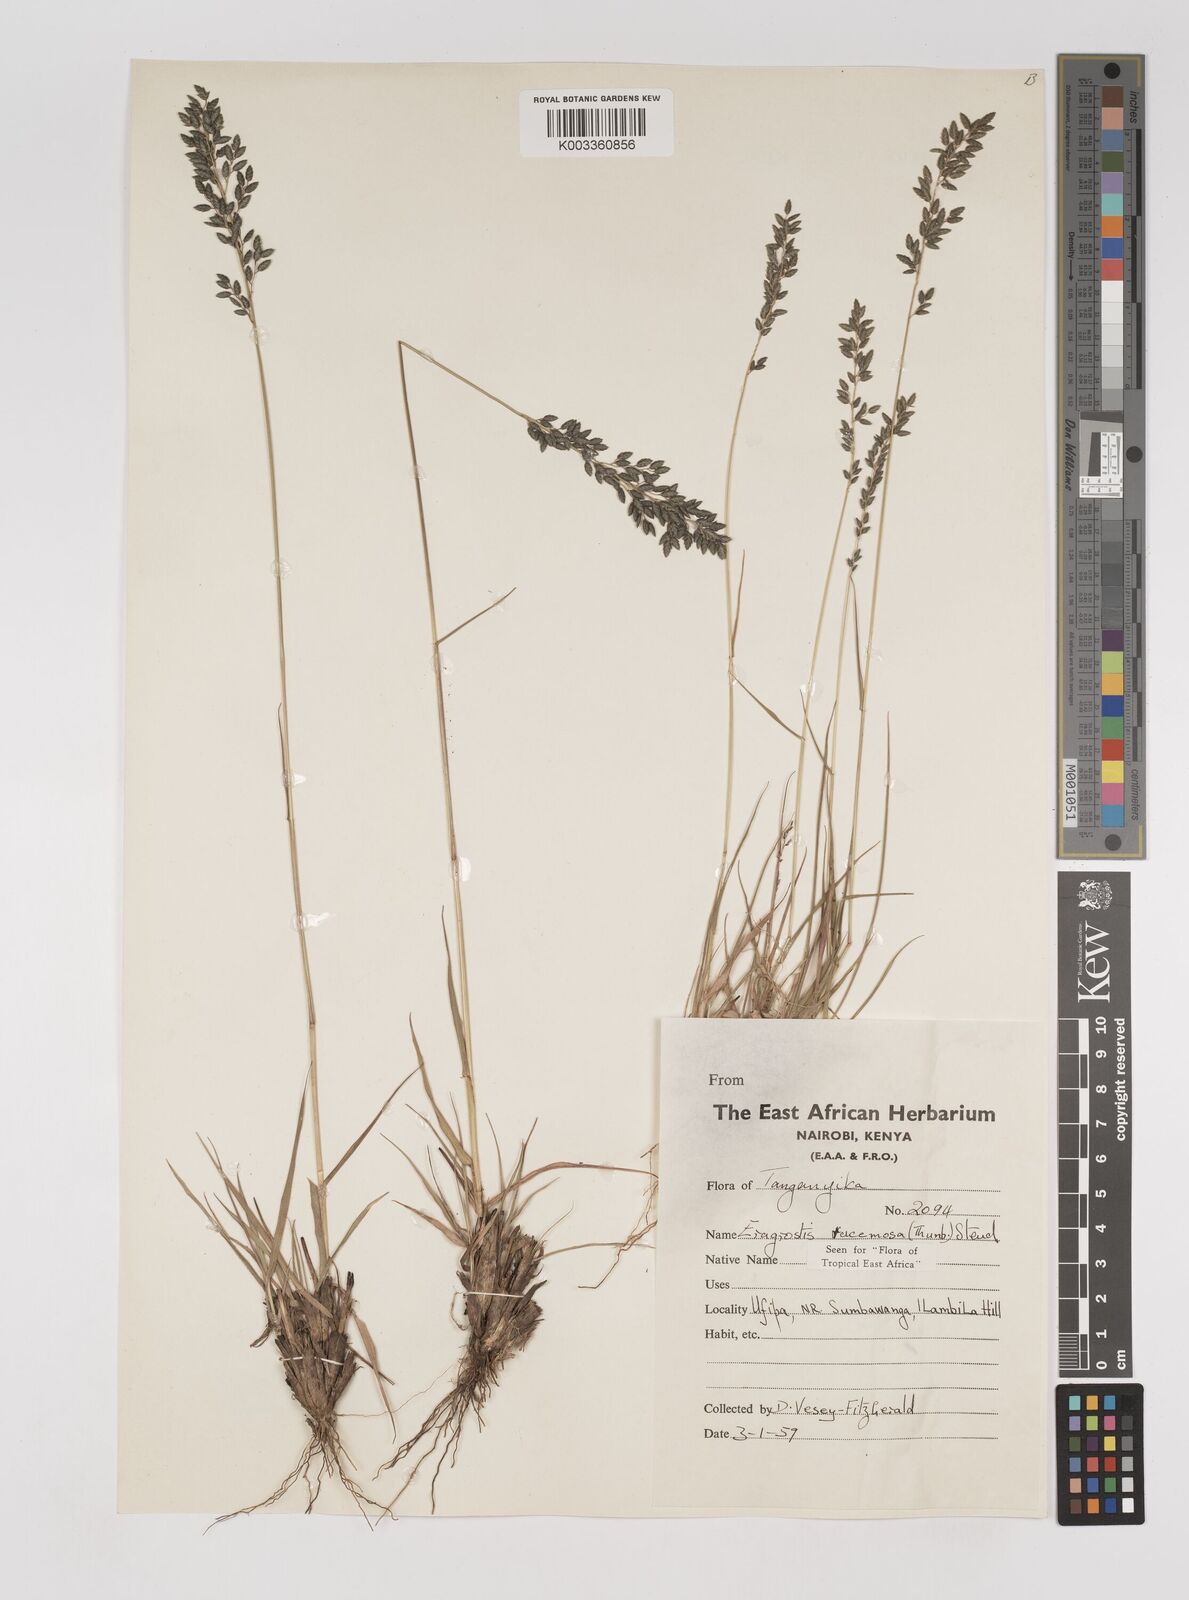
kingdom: Plantae
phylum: Tracheophyta
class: Liliopsida
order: Poales
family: Poaceae
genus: Eragrostis
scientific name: Eragrostis racemosa
